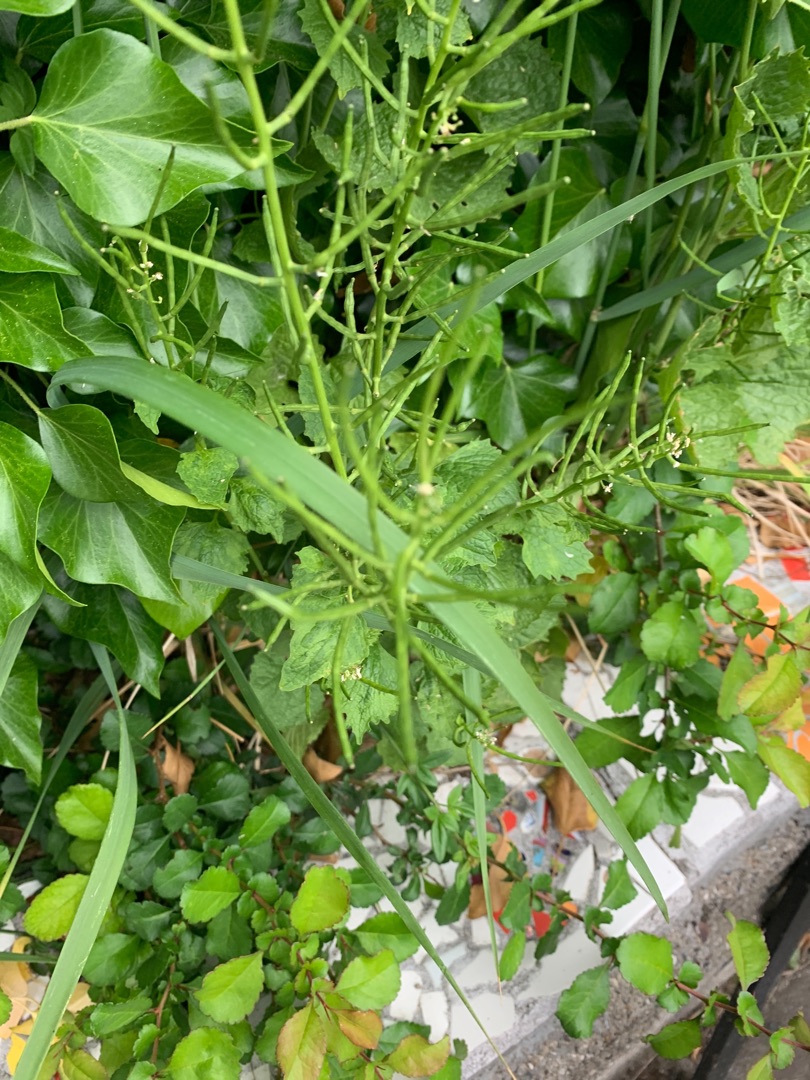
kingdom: Plantae
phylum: Tracheophyta
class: Magnoliopsida
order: Apiales
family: Araliaceae
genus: Hedera
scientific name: Hedera helix
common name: Vedbend
